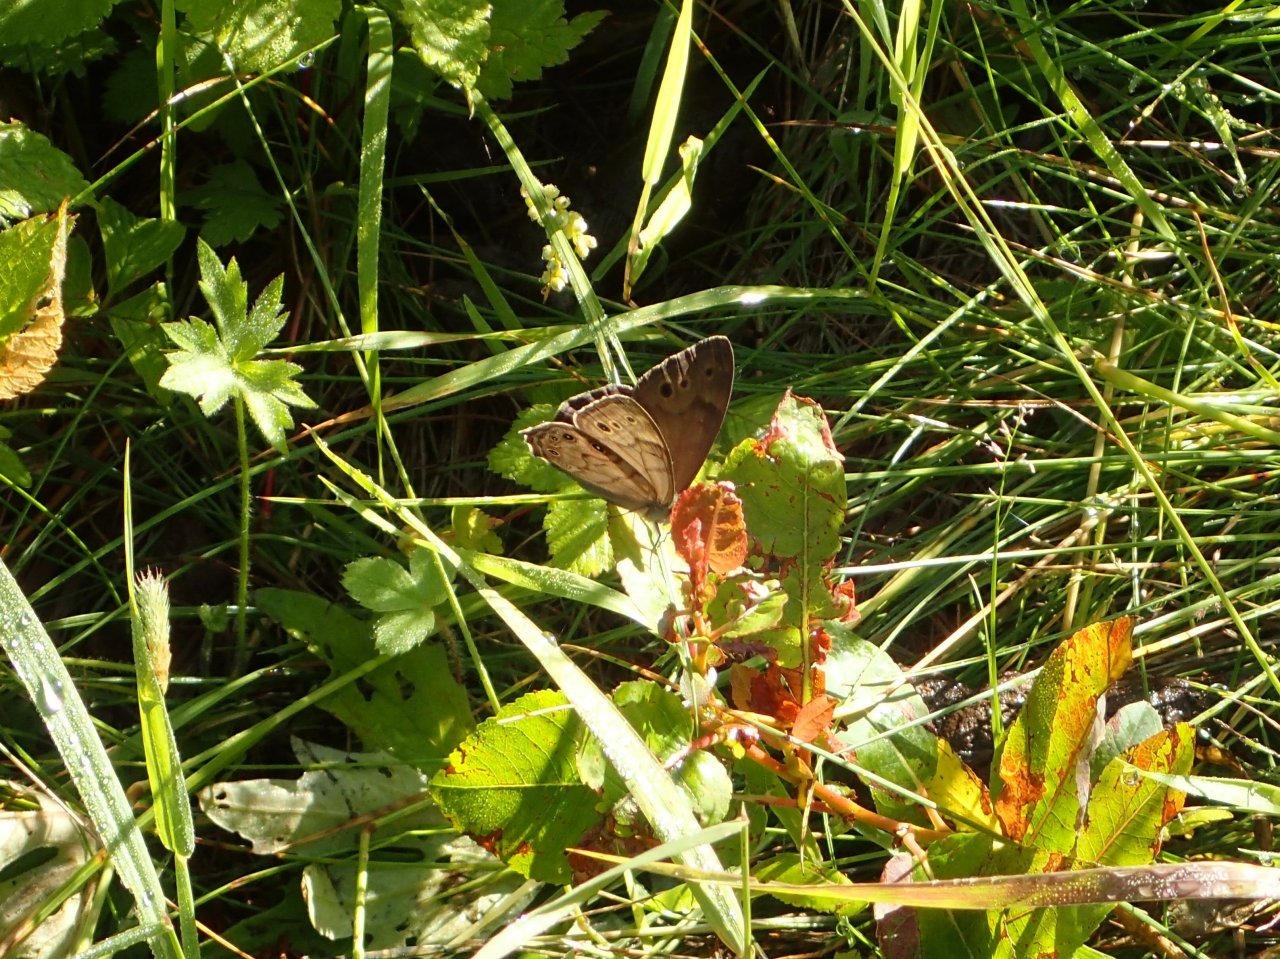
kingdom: Animalia
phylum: Arthropoda
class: Insecta
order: Lepidoptera
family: Nymphalidae
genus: Lethe
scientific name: Lethe anthedon
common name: Northern Pearly-Eye
